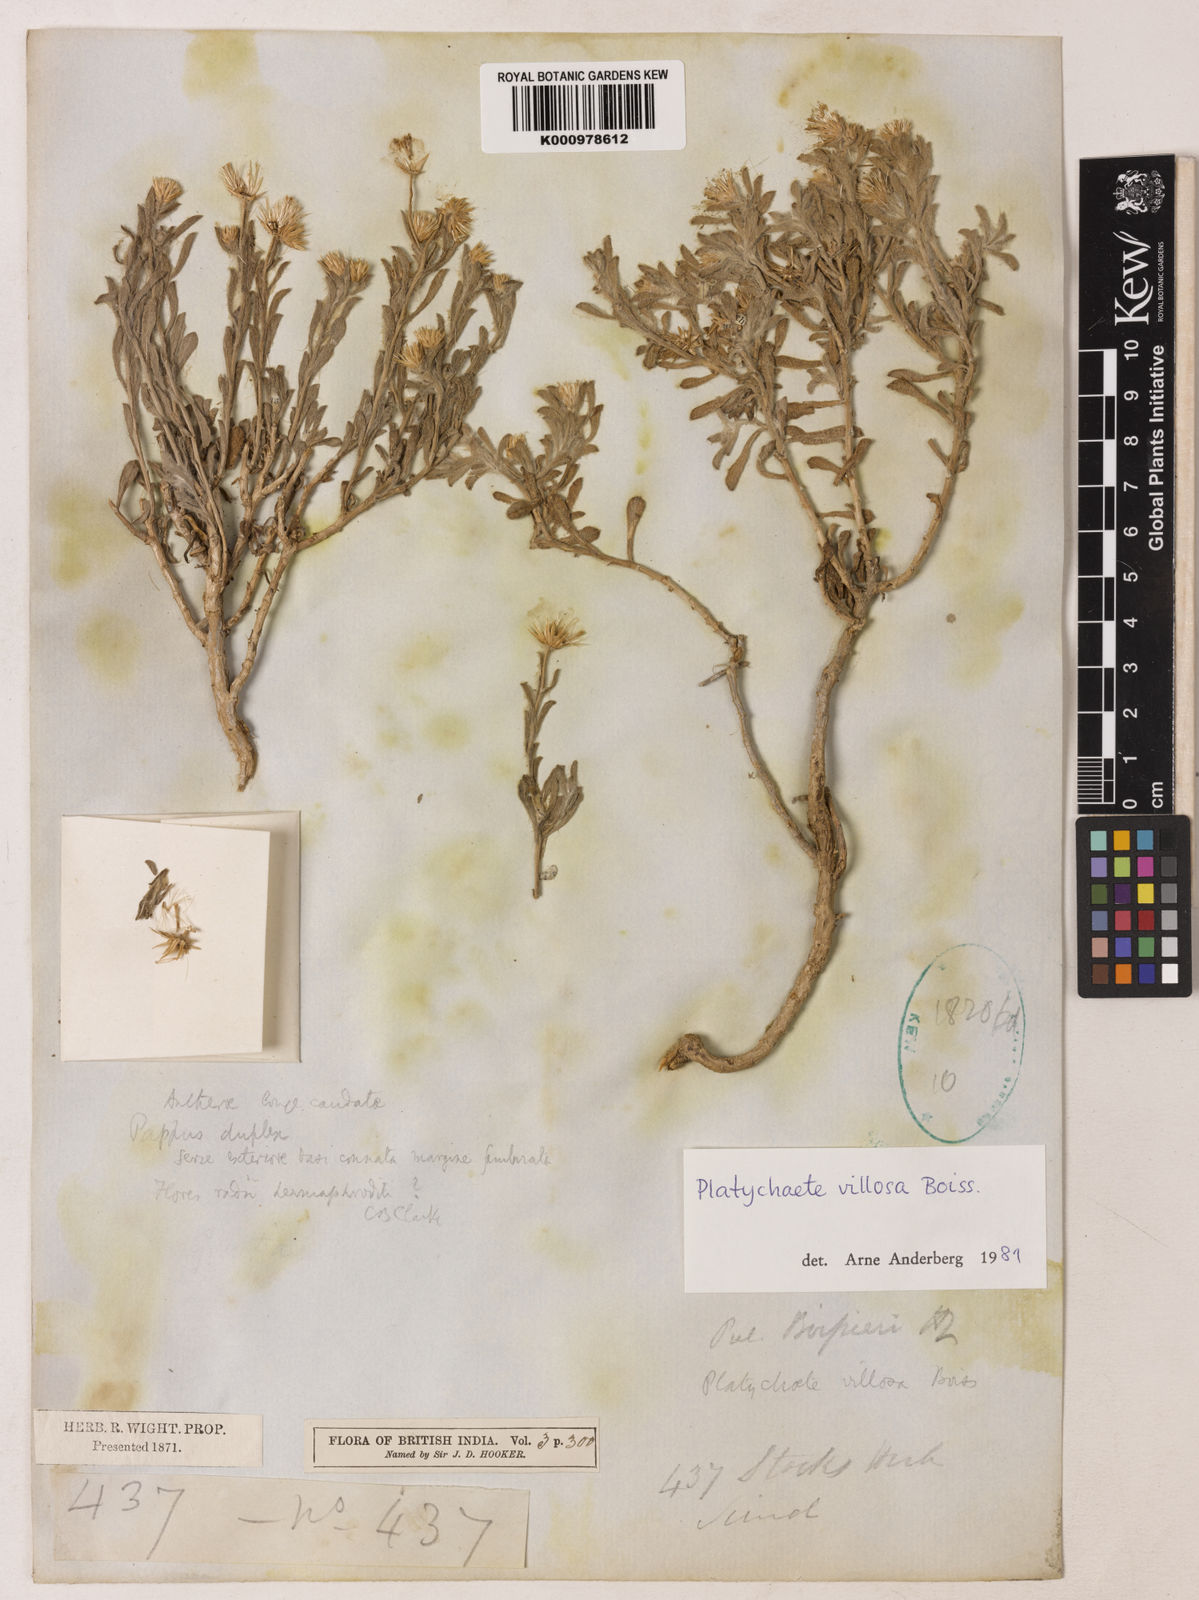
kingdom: Plantae
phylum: Tracheophyta
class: Magnoliopsida
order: Asterales
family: Asteraceae
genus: Pulicaria
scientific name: Pulicaria boissieri
